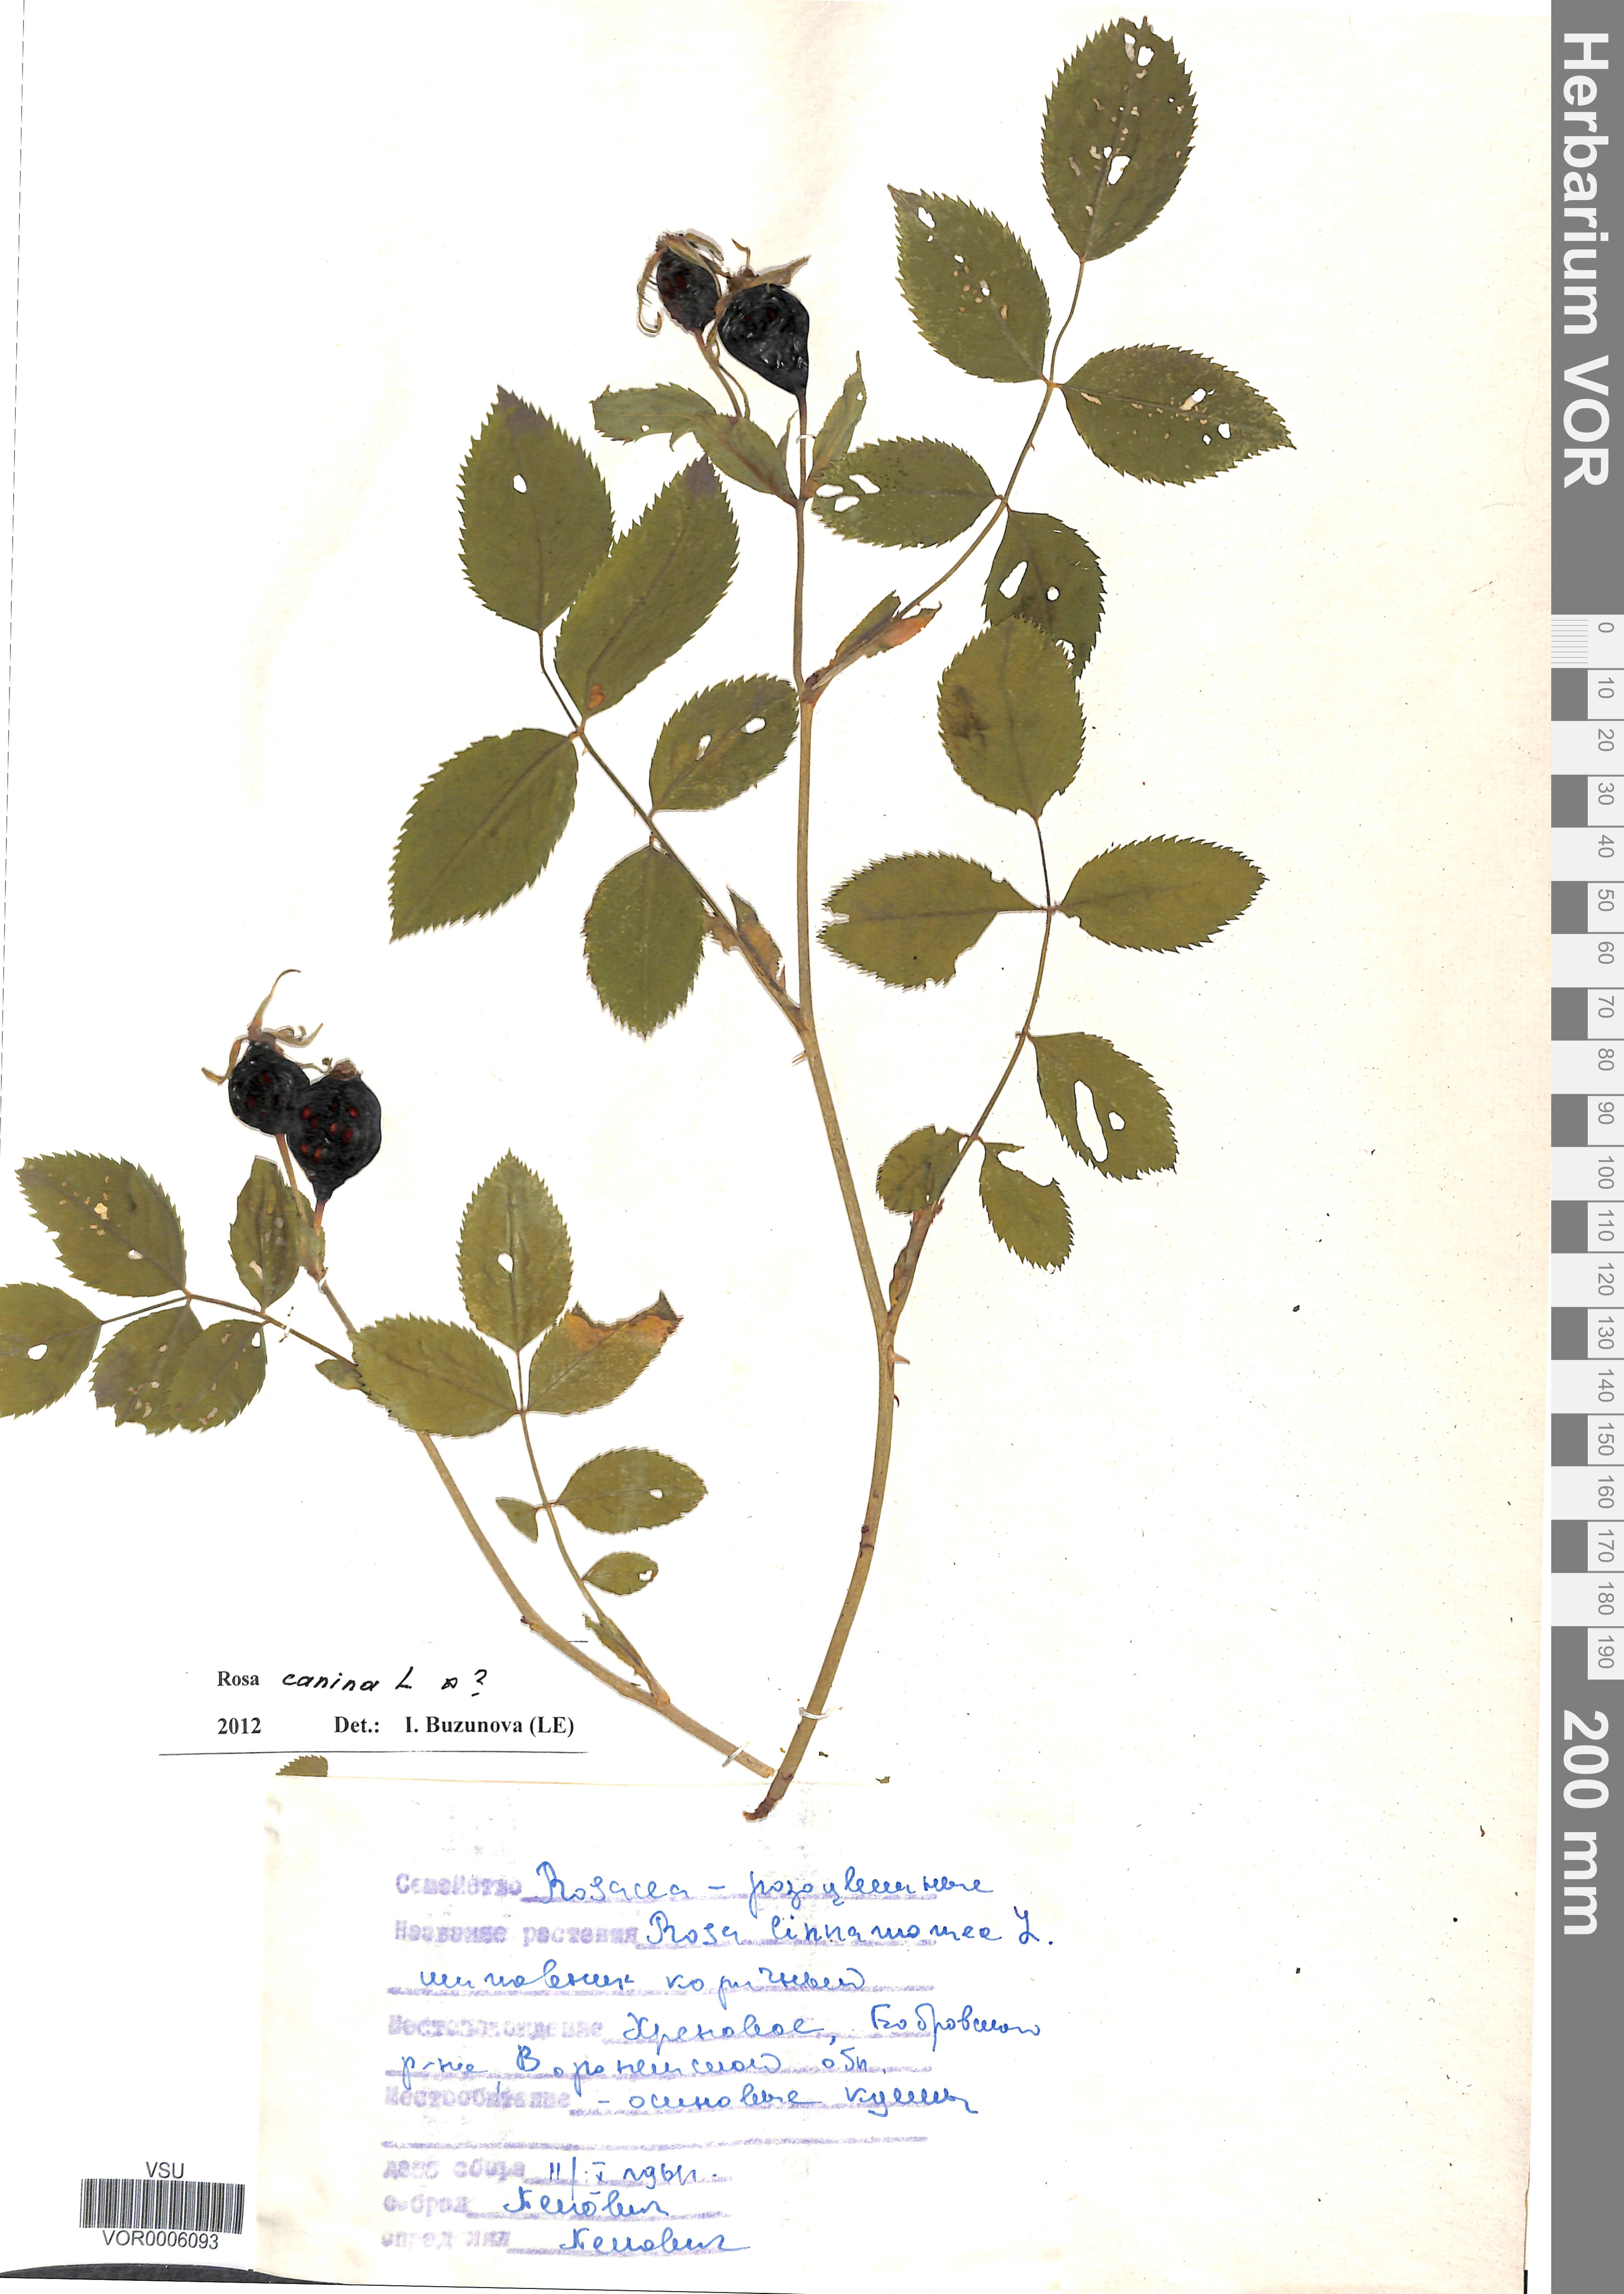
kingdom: Plantae
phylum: Tracheophyta
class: Magnoliopsida
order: Rosales
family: Rosaceae
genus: Rosa
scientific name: Rosa canina
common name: Dog rose
